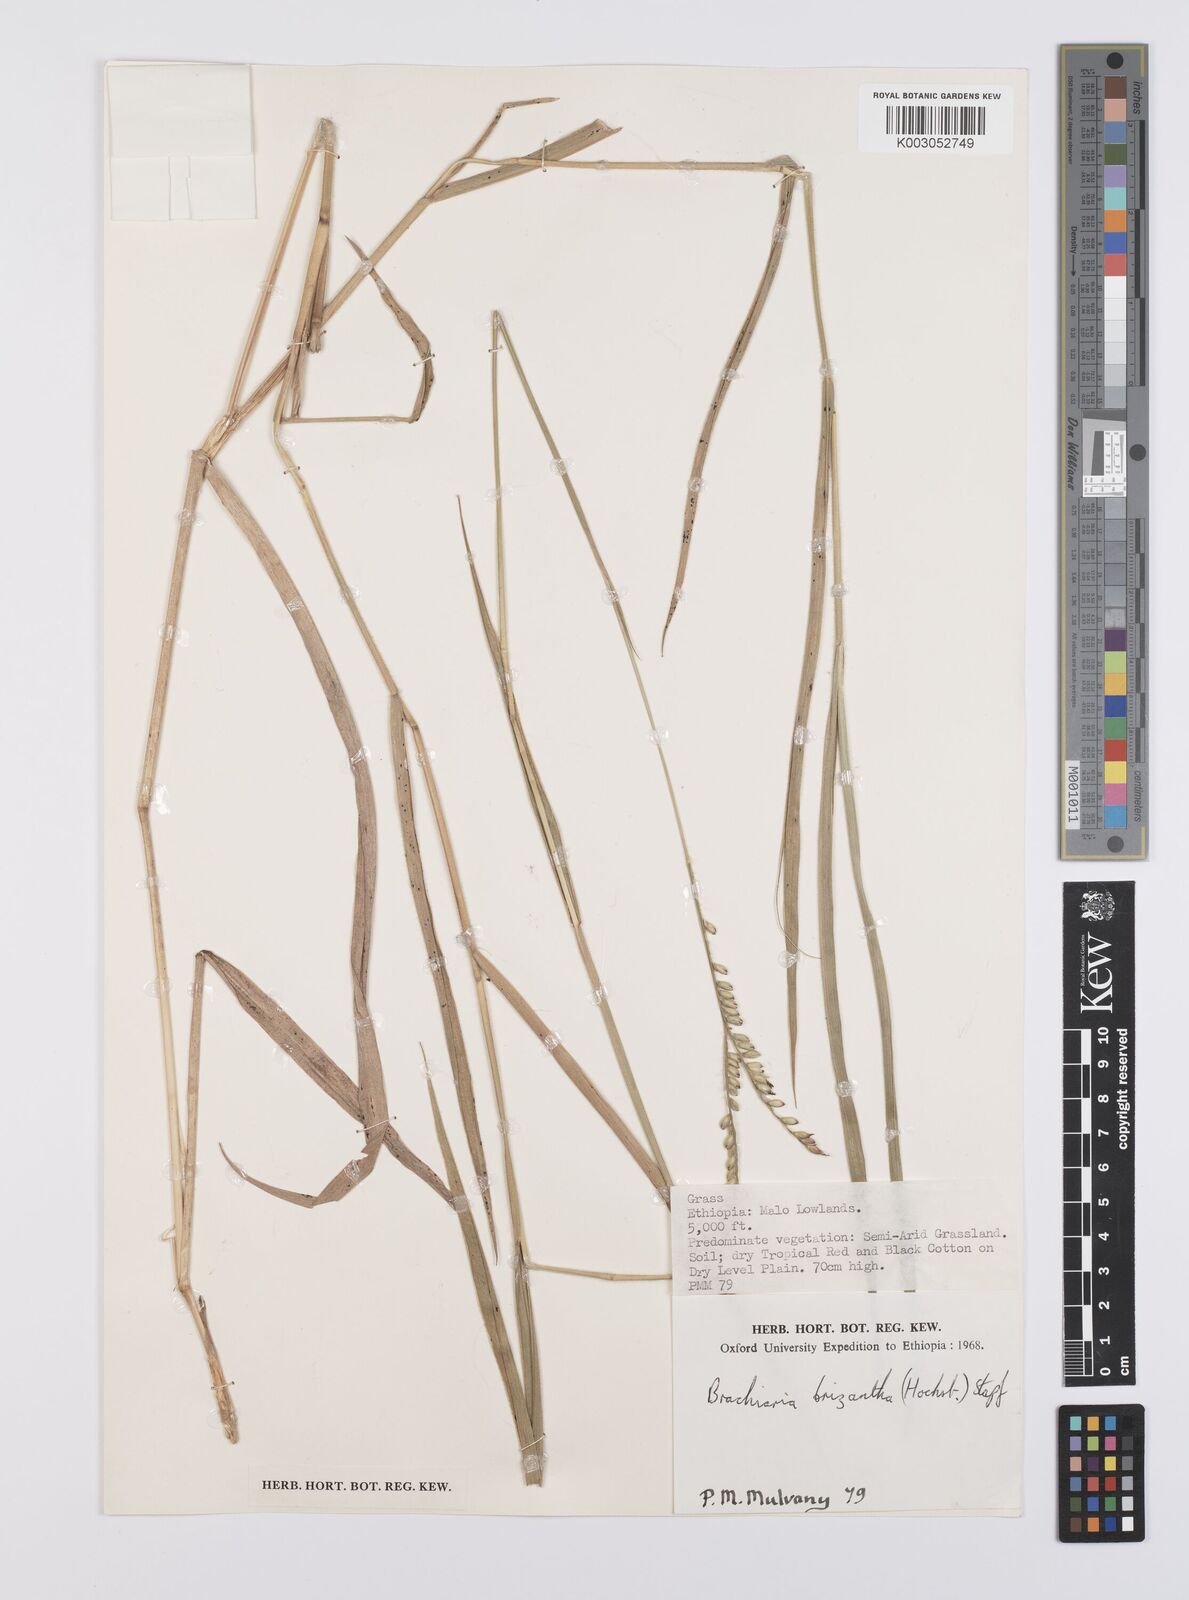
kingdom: Plantae
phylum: Tracheophyta
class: Liliopsida
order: Poales
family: Poaceae
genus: Urochloa
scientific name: Urochloa brizantha
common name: Palisade signalgrass
